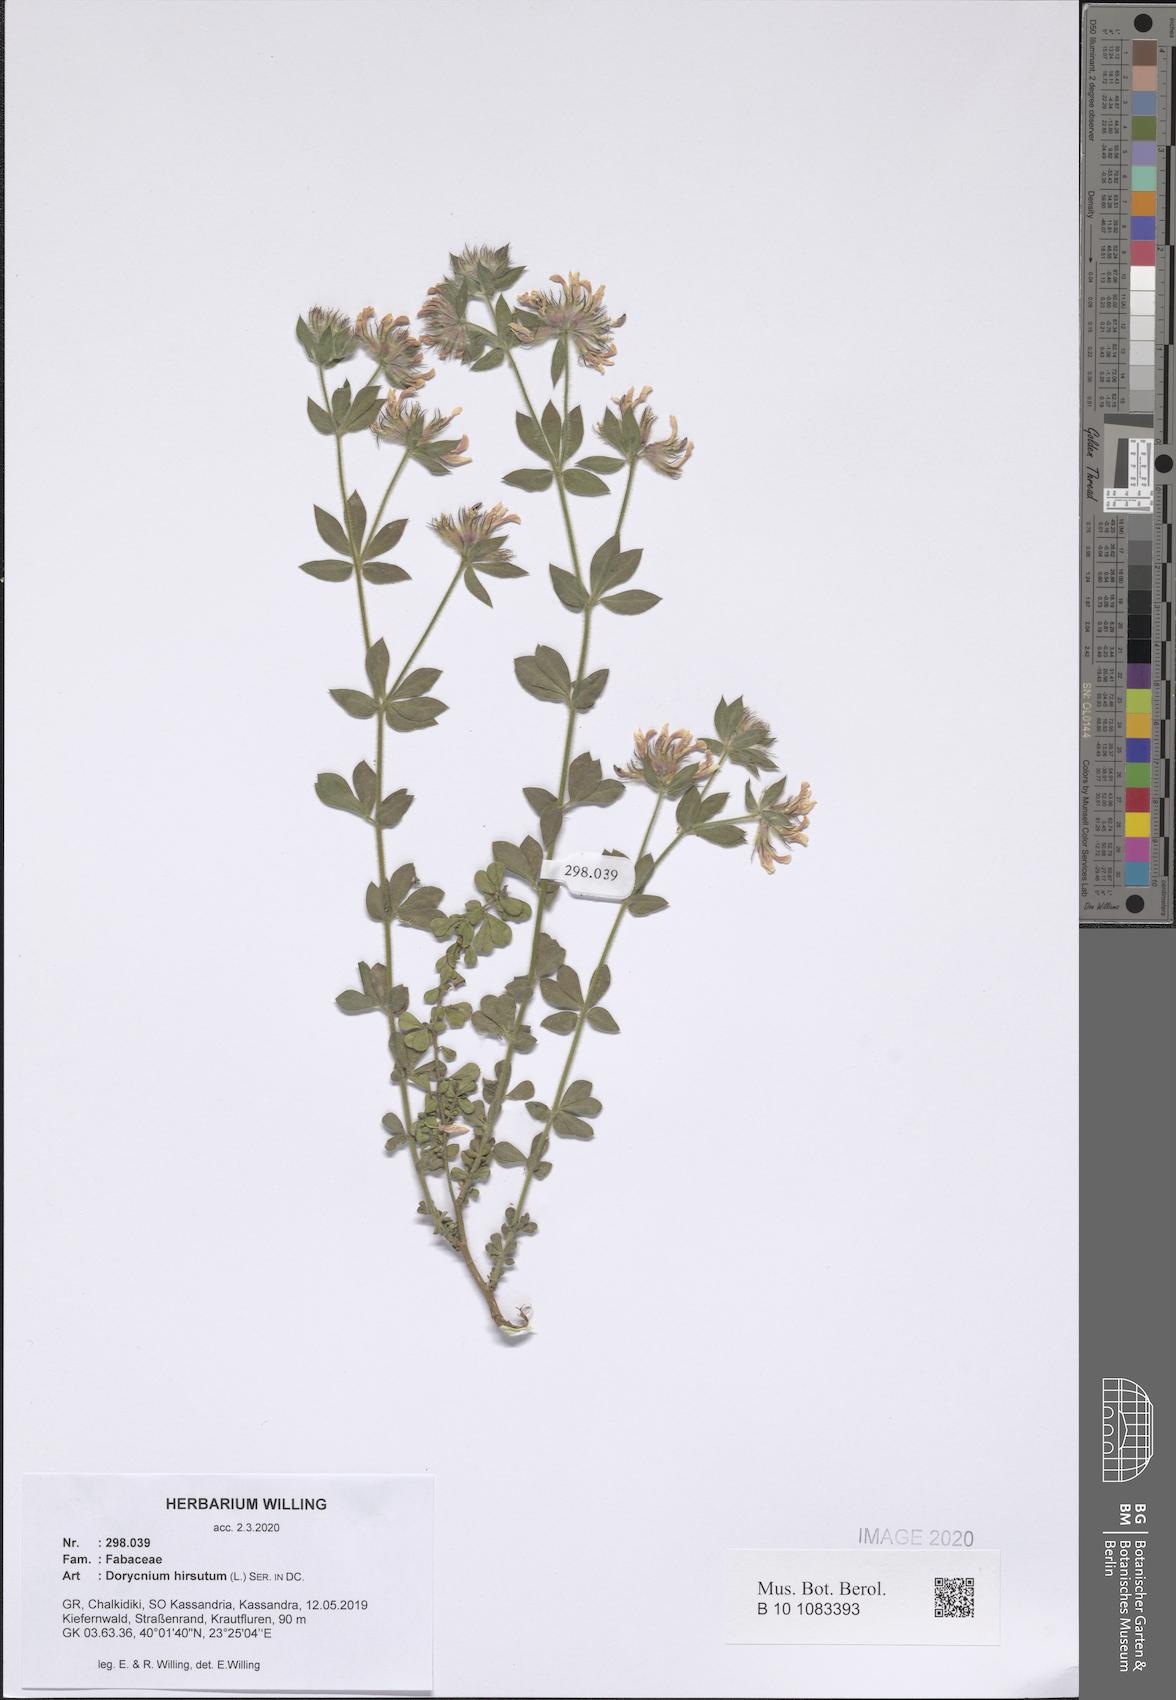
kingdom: Plantae
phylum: Tracheophyta
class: Magnoliopsida
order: Fabales
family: Fabaceae
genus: Lotus
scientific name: Lotus hirsutus
